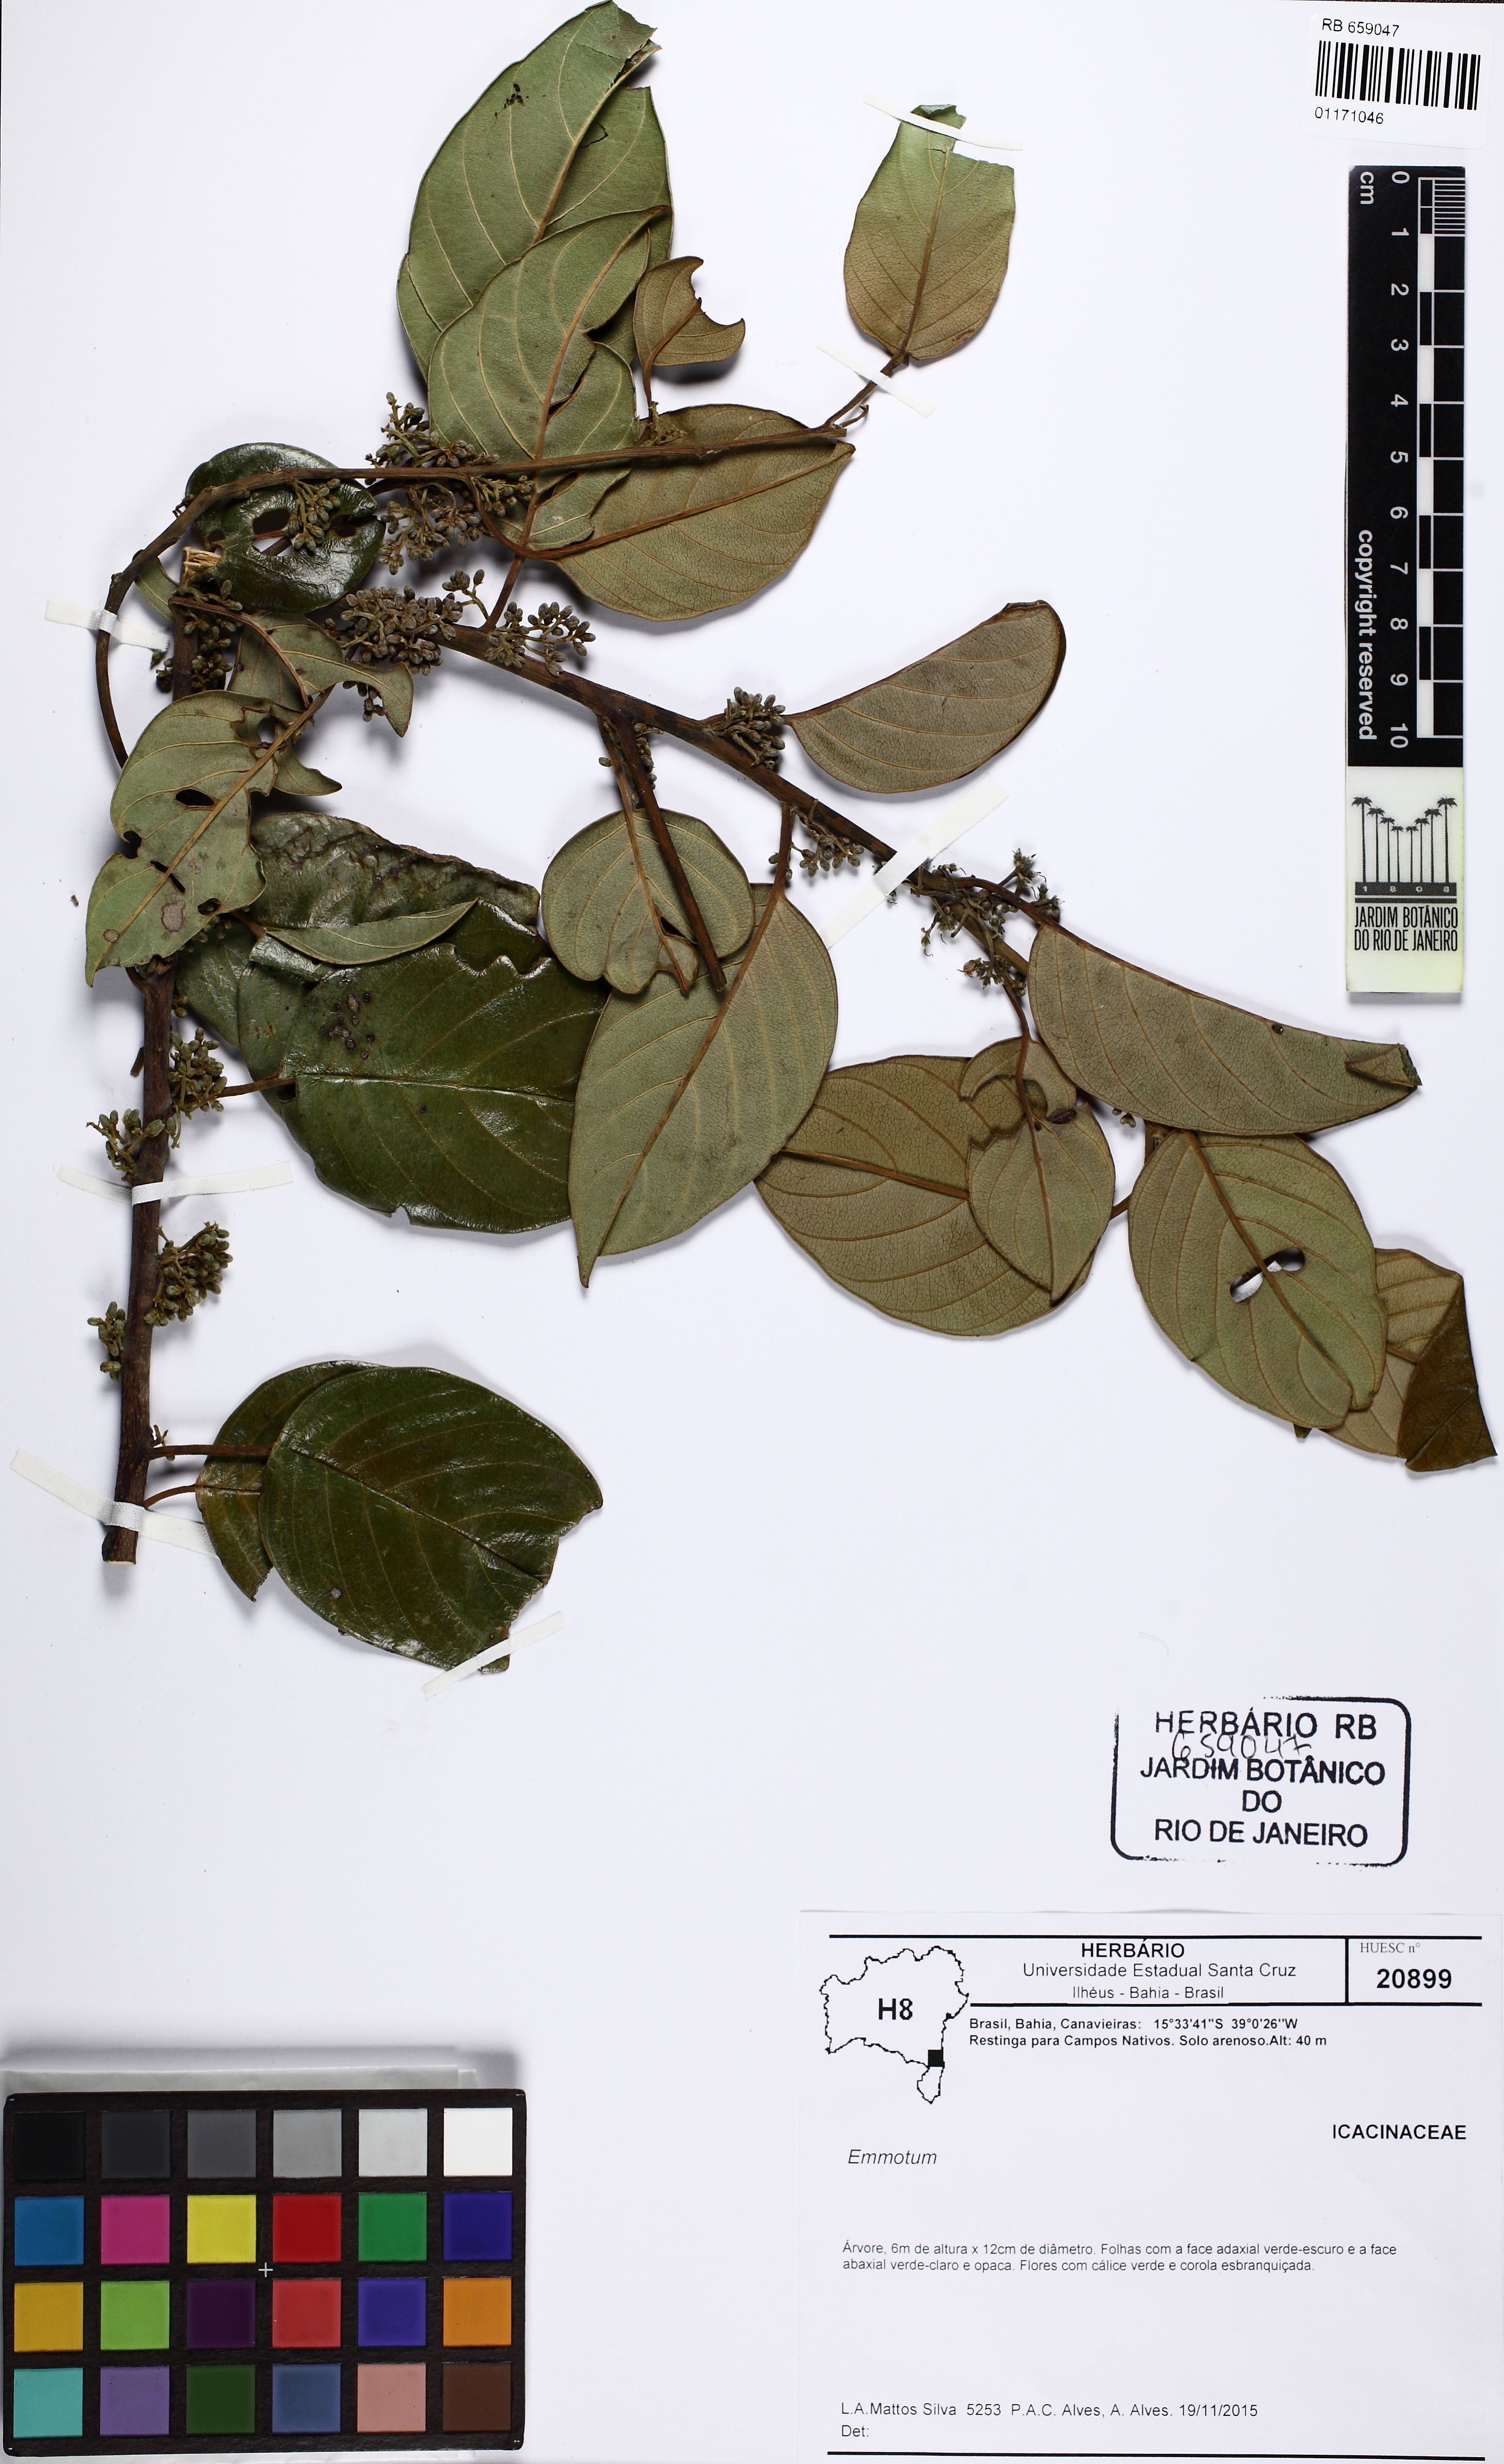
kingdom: Plantae
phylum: Tracheophyta
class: Magnoliopsida
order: Icacinales
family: Icacinaceae
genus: Emmotum
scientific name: Emmotum
